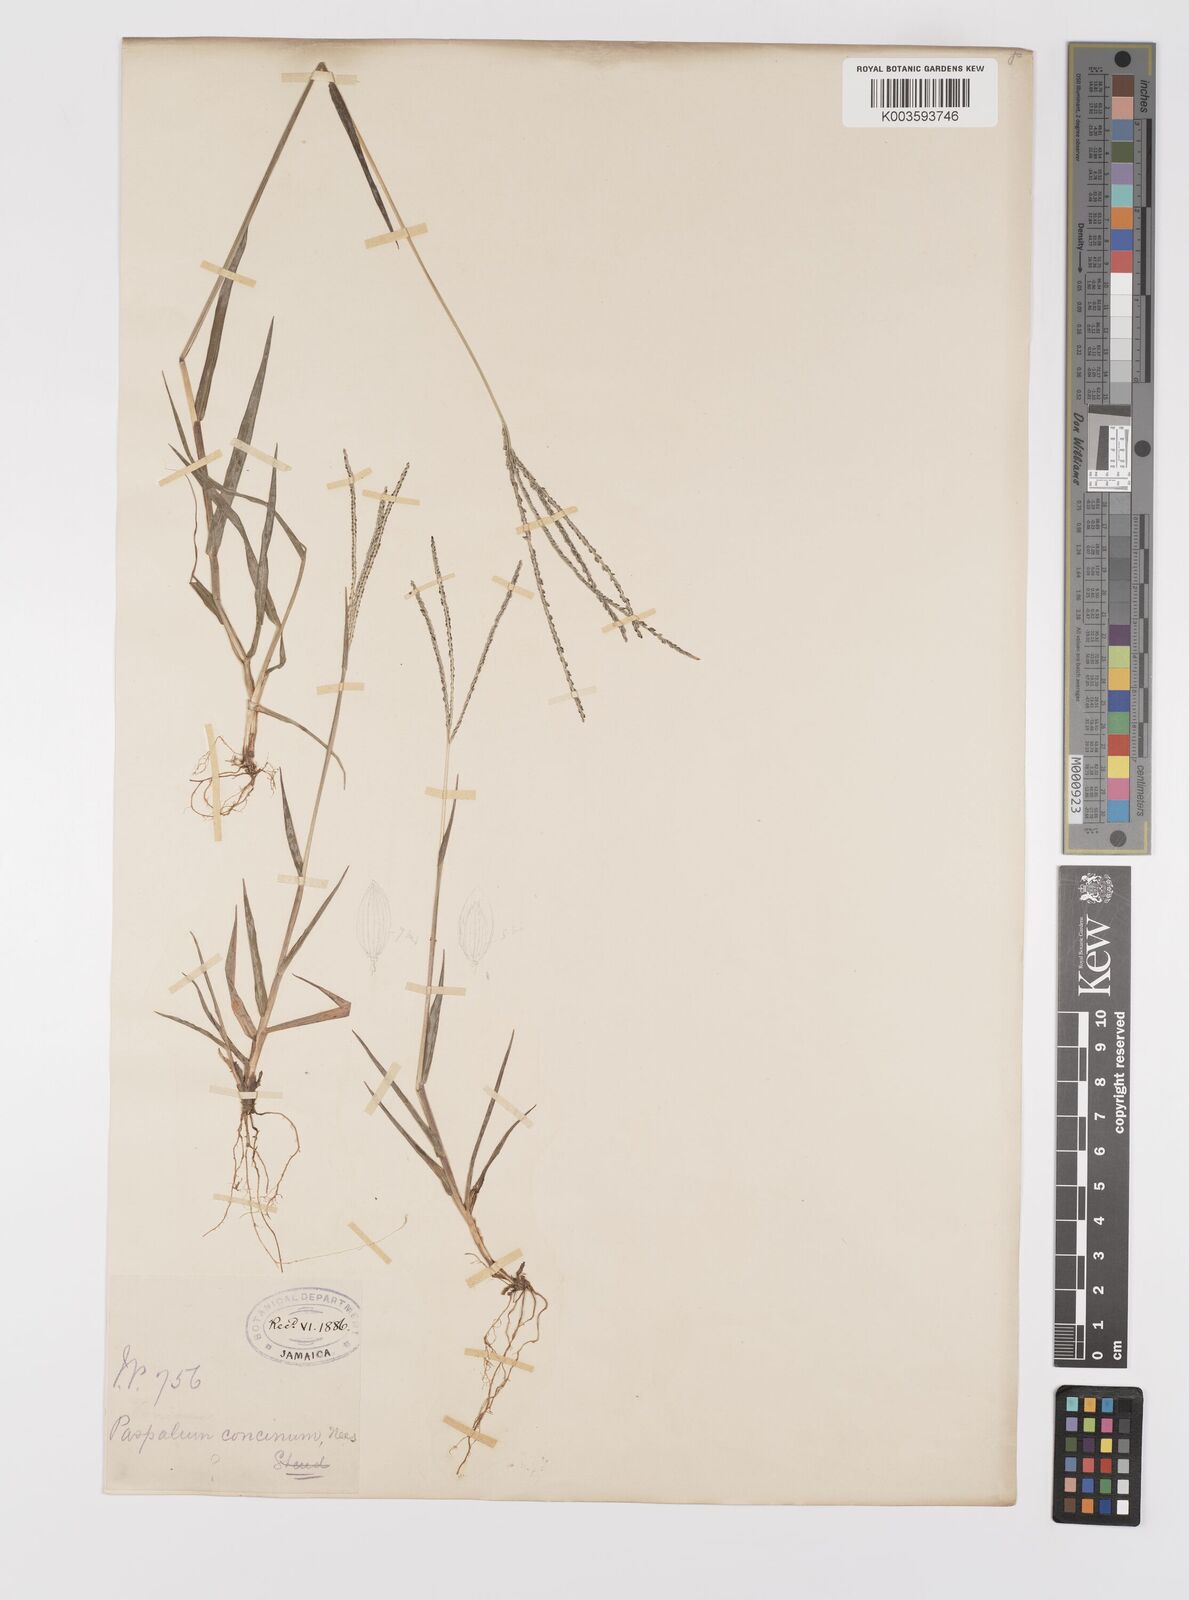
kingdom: Plantae
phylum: Tracheophyta
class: Liliopsida
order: Poales
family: Poaceae
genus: Digitaria
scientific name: Digitaria violascens
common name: Violet crabgrass
